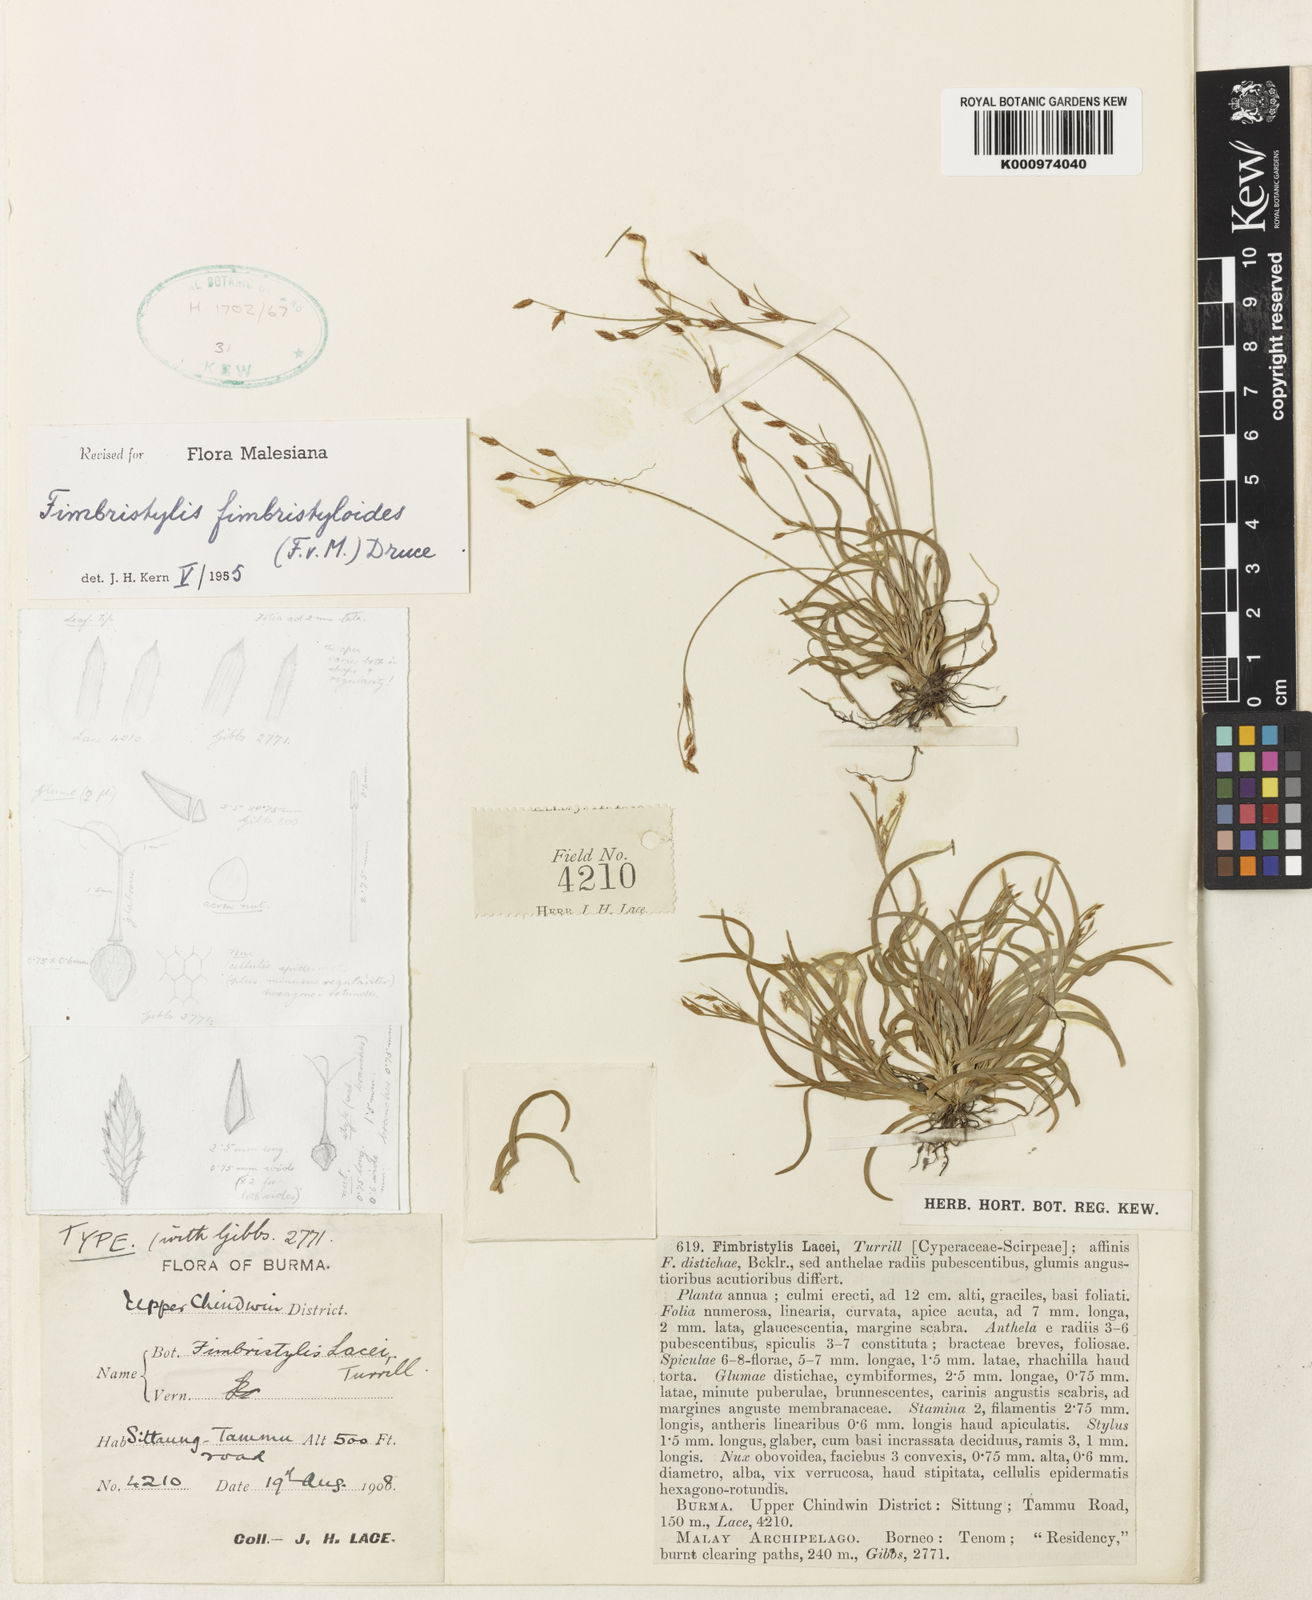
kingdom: Plantae
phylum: Tracheophyta
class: Liliopsida
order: Poales
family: Cyperaceae
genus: Fimbristylis
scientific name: Fimbristylis fimbristyloides
